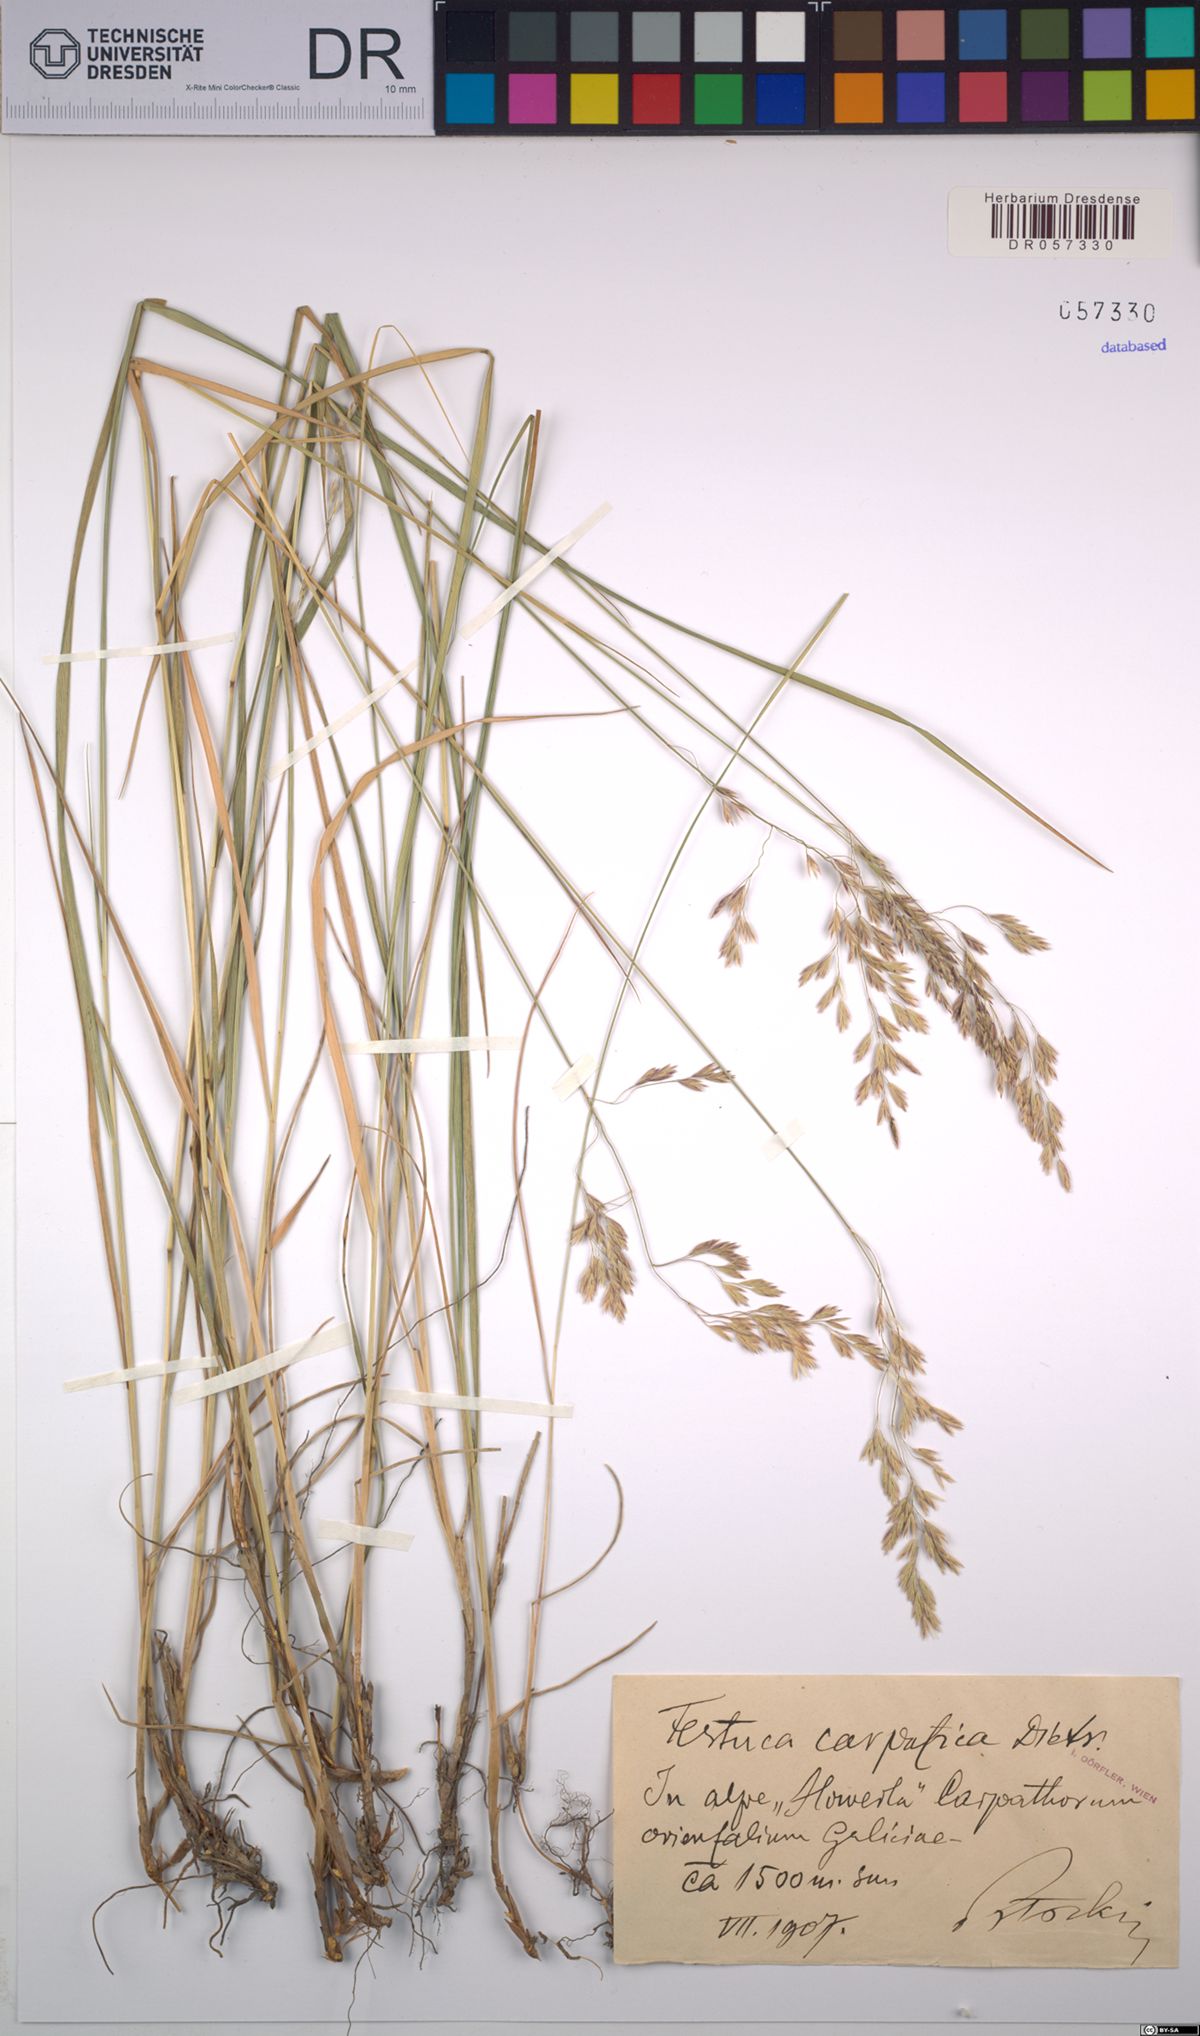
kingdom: Plantae
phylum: Tracheophyta
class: Liliopsida
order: Poales
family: Poaceae
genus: Festuca
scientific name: Festuca carpatica
